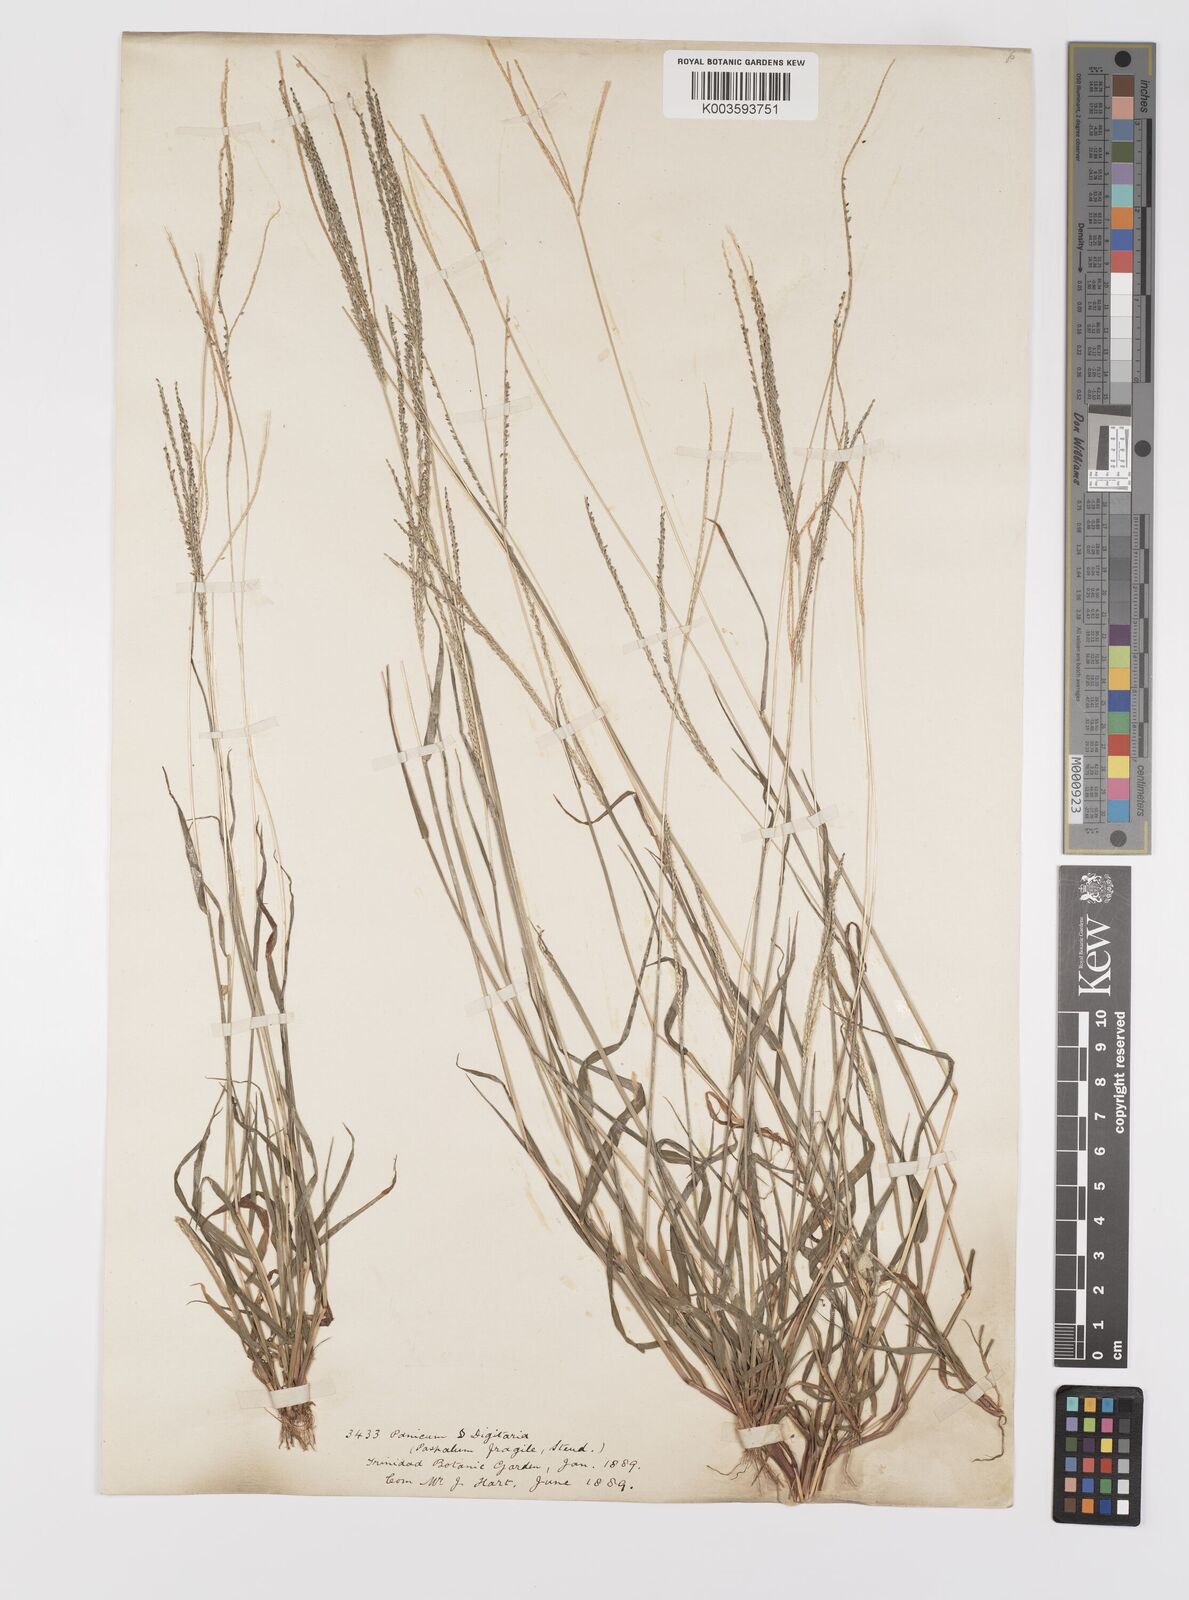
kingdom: Plantae
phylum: Tracheophyta
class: Liliopsida
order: Poales
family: Poaceae
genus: Digitaria
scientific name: Digitaria violascens
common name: Violet crabgrass
